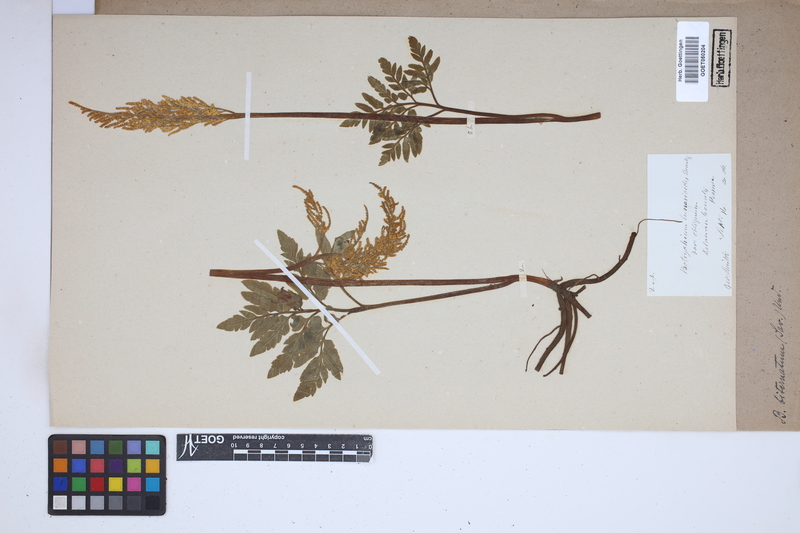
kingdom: Plantae
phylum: Tracheophyta
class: Polypodiopsida
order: Ophioglossales
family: Ophioglossaceae
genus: Sceptridium
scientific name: Sceptridium biternatum
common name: Sparse-lobed grapefern
